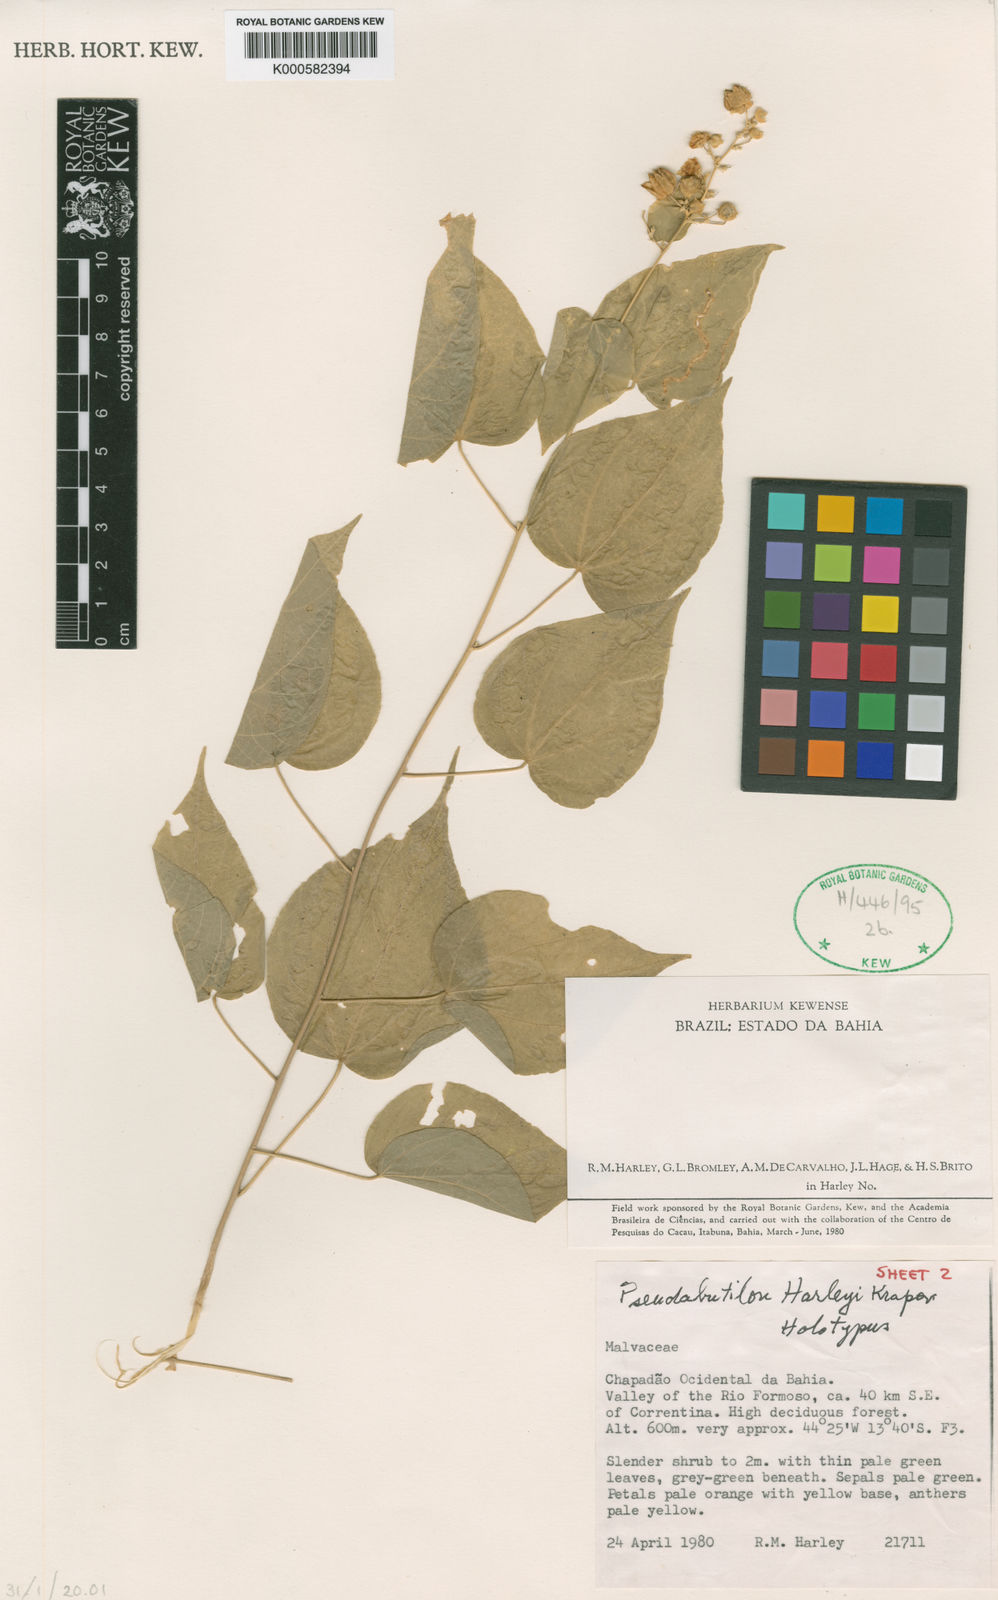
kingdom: Plantae
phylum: Tracheophyta
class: Magnoliopsida
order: Malvales
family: Malvaceae
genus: Pseudabutilon
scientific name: Pseudabutilon harleyi
